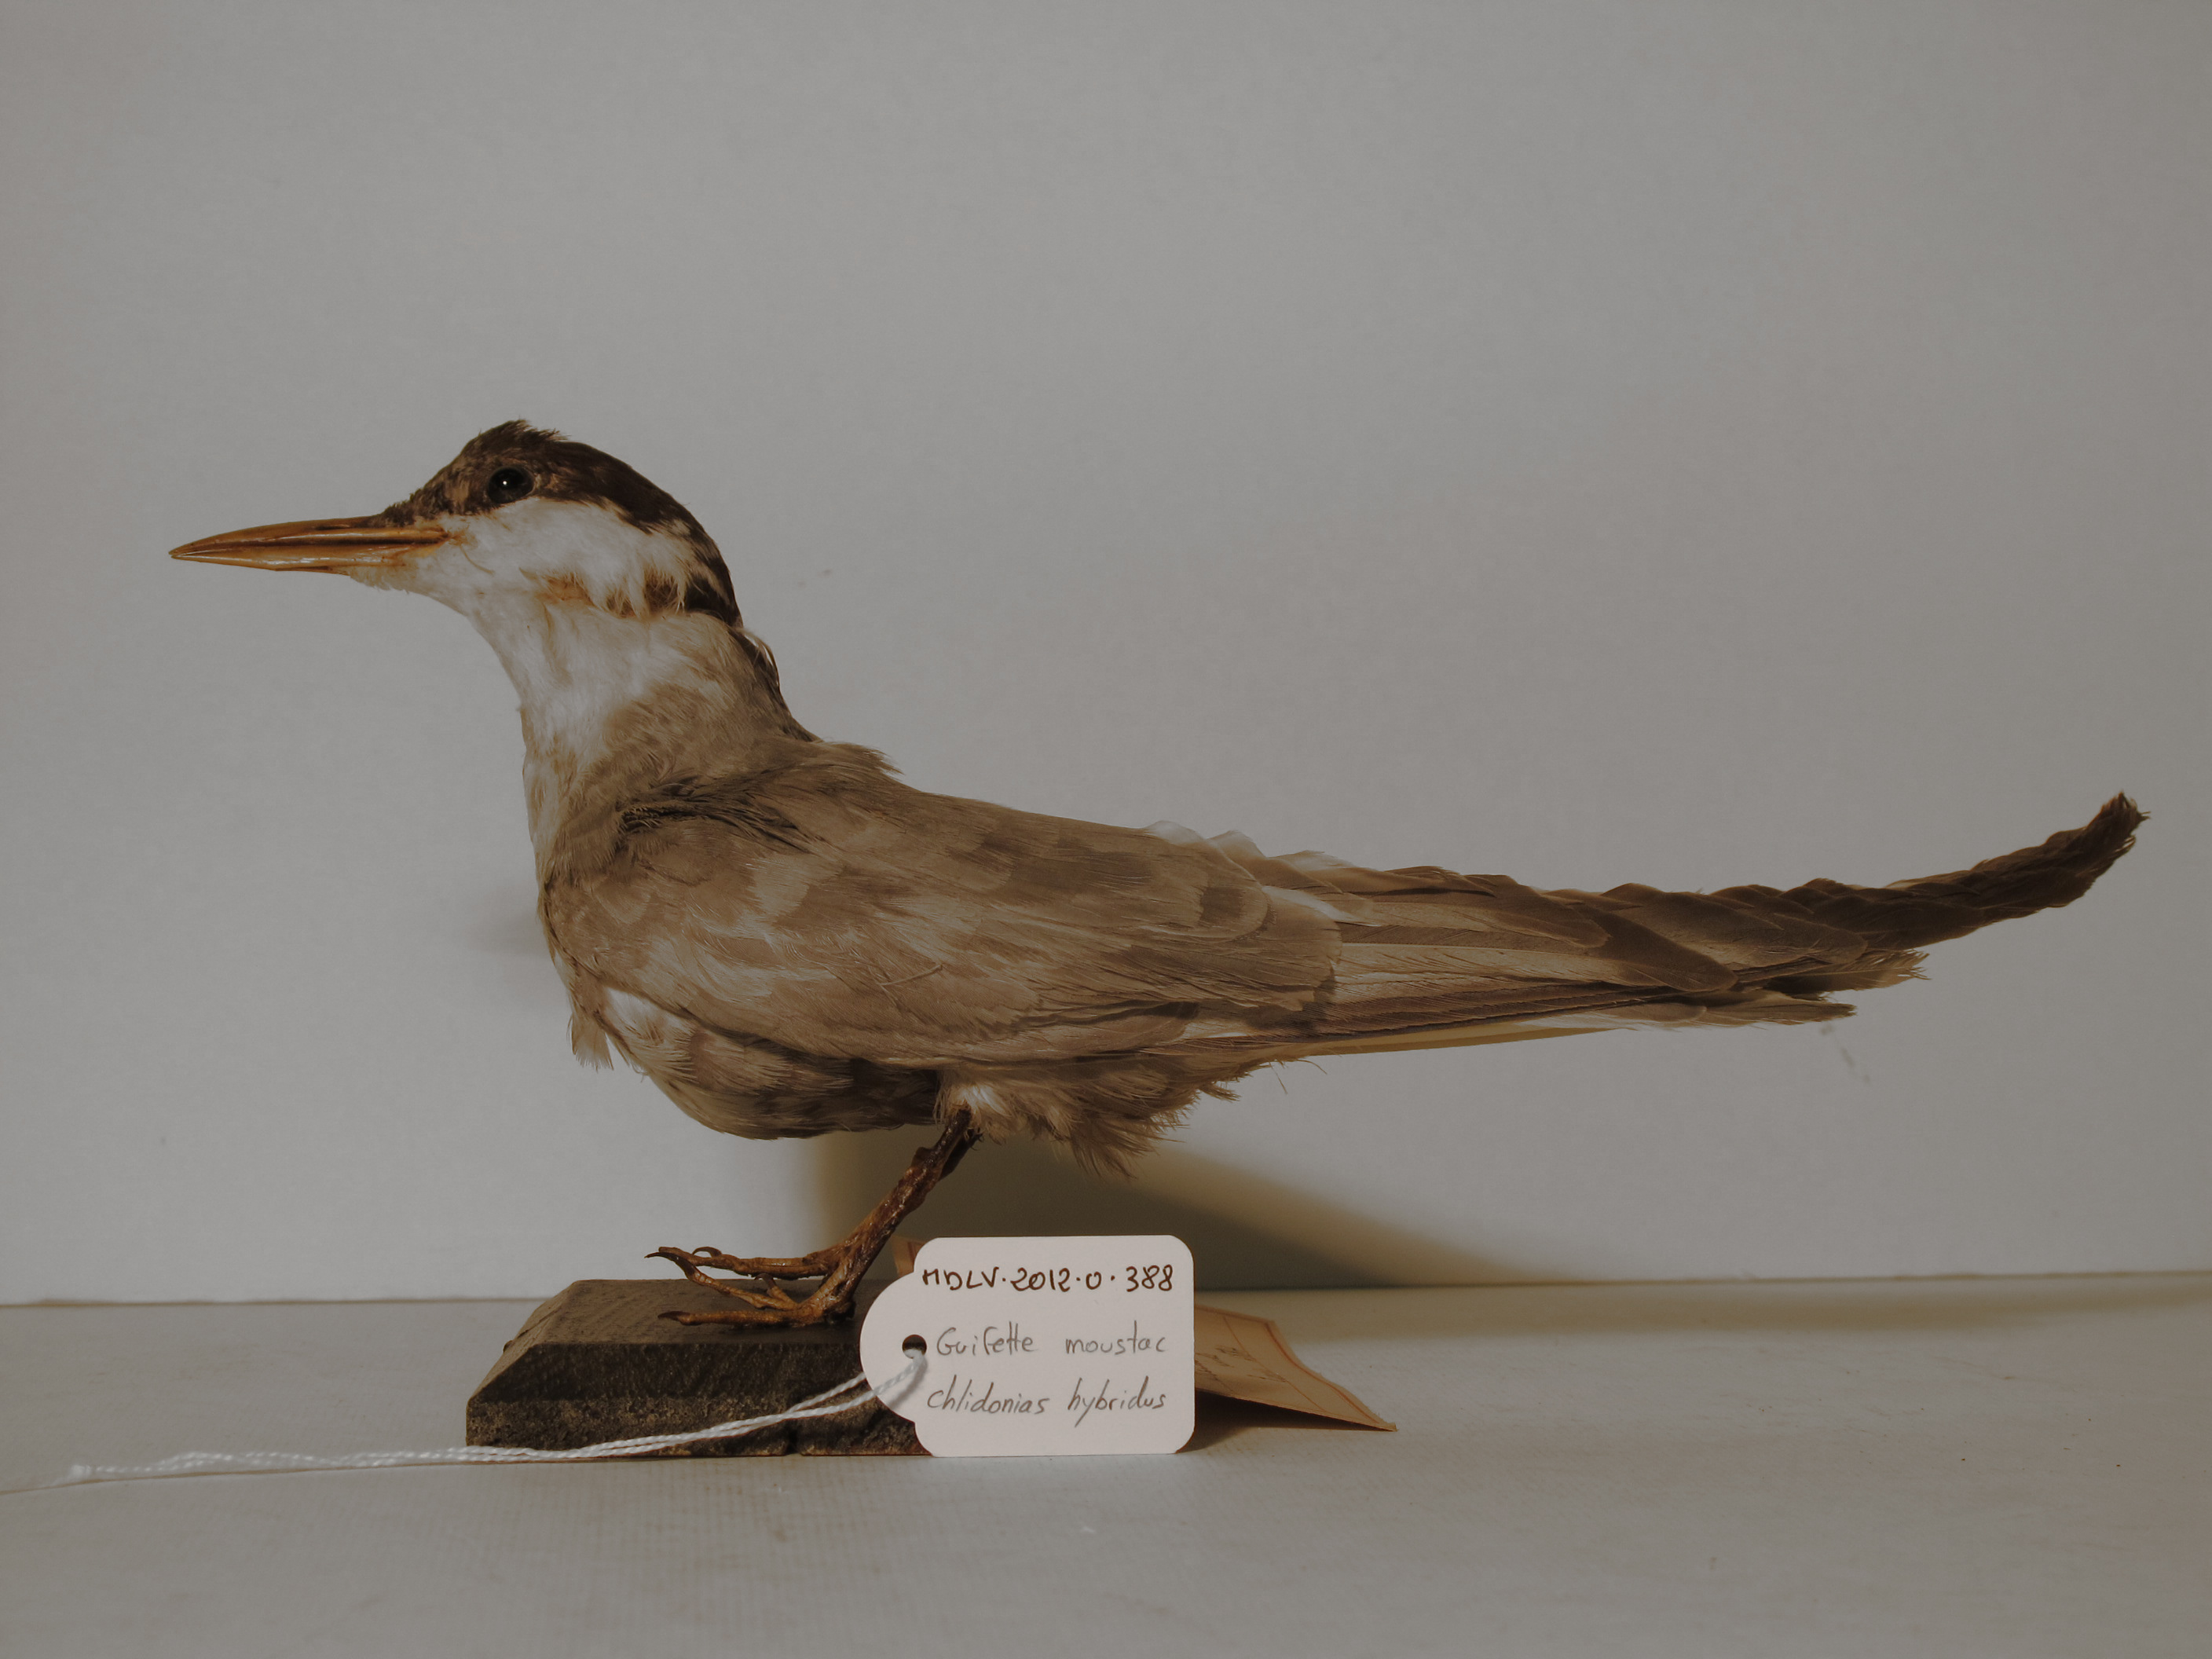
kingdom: Animalia
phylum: Chordata
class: Aves
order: Charadriiformes
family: Laridae
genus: Chlidonias
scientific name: Chlidonias hybrida
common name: Whiskered Tern
